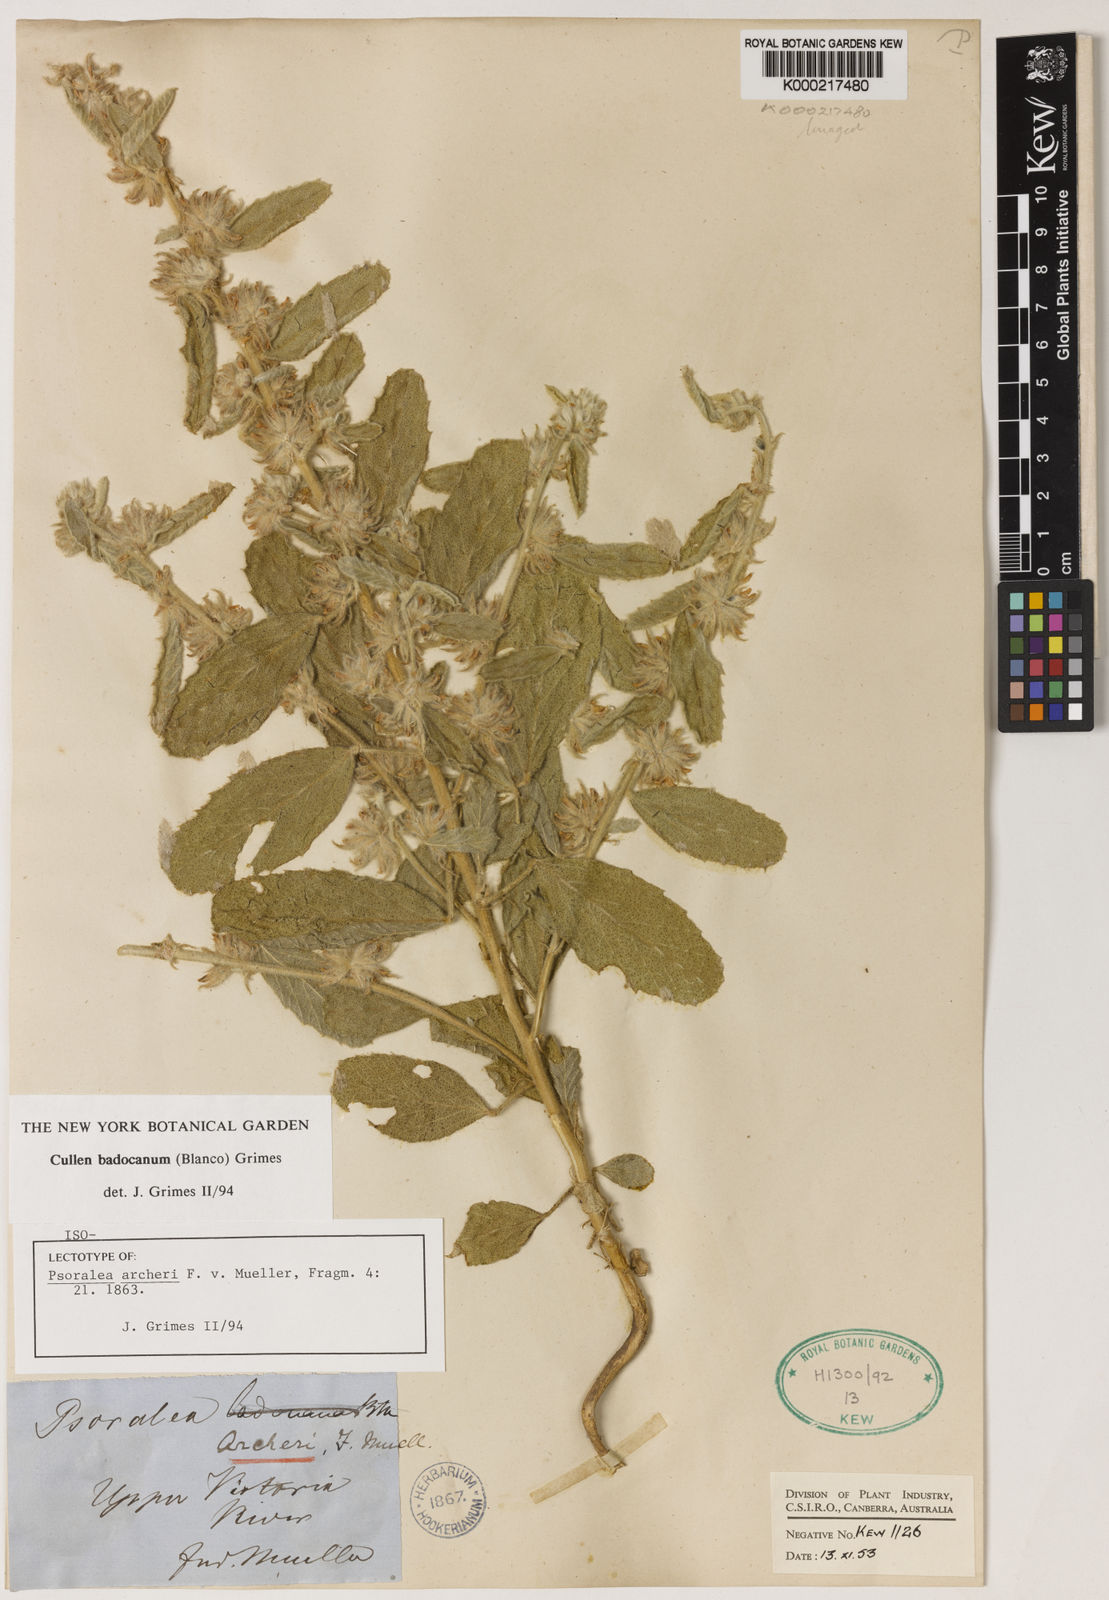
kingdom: Plantae
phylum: Tracheophyta
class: Magnoliopsida
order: Fabales
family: Fabaceae
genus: Cullen
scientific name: Cullen
